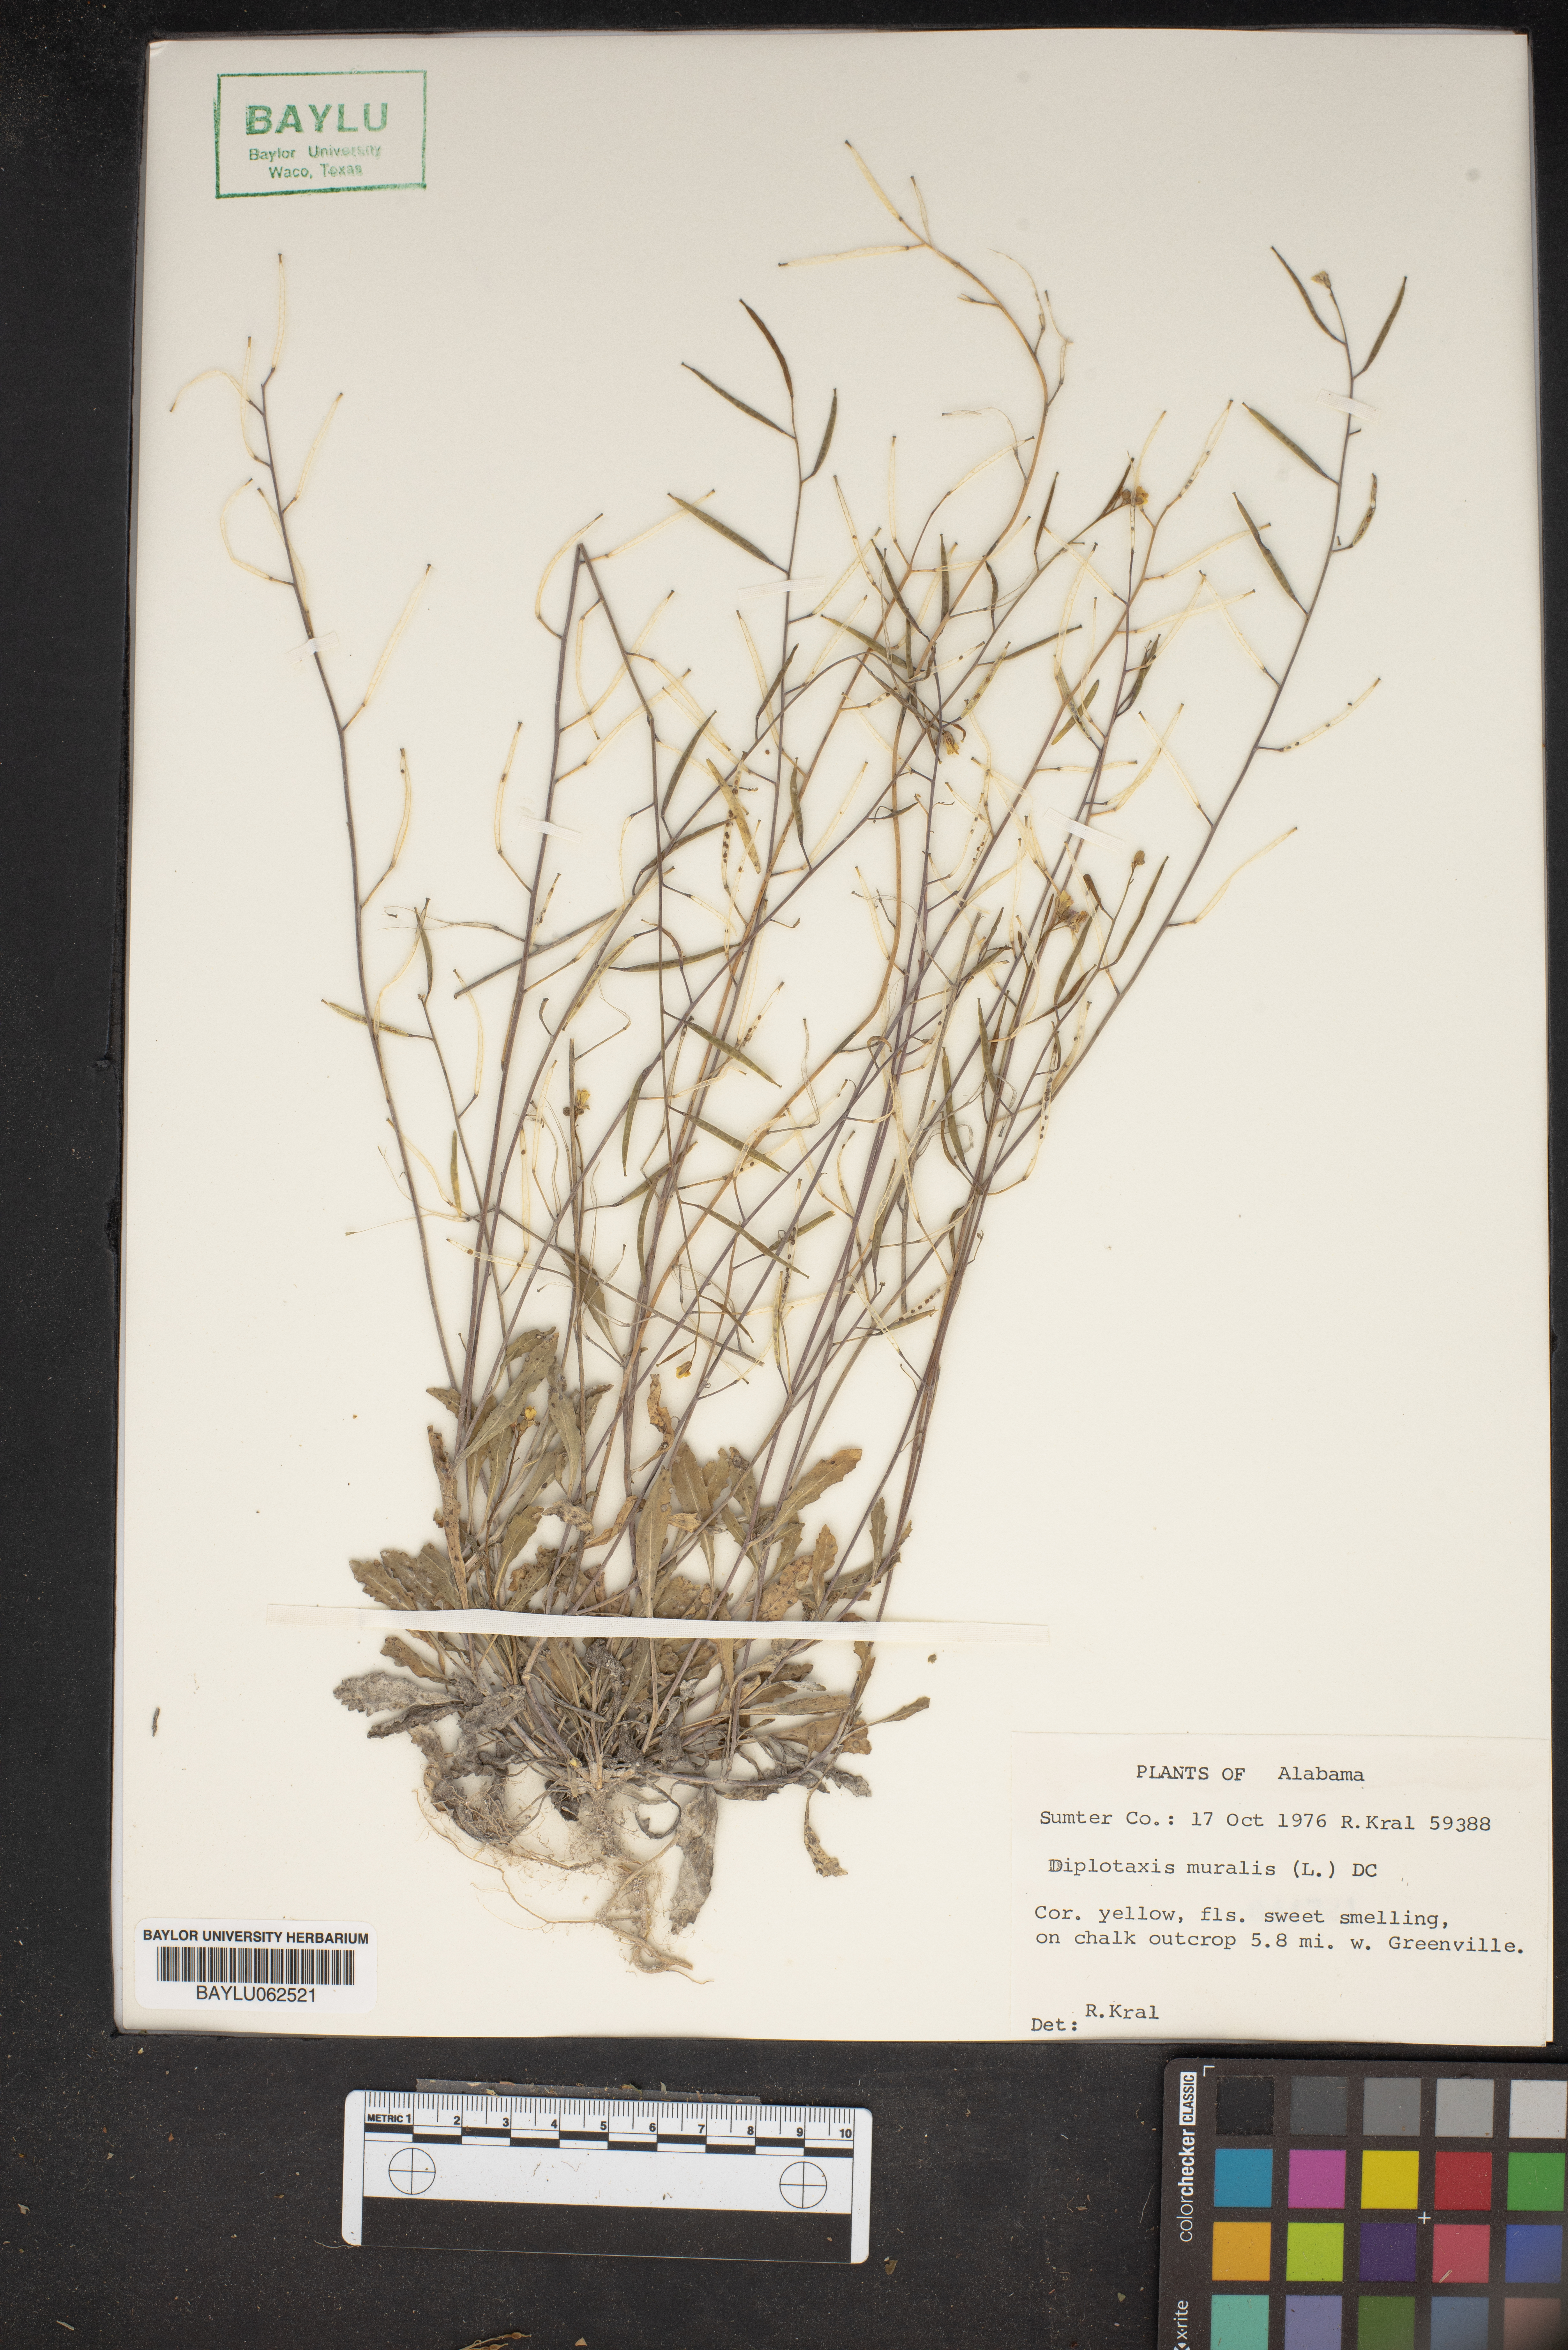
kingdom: Plantae
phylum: Tracheophyta
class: Magnoliopsida
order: Brassicales
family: Brassicaceae
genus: Diplotaxis
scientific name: Diplotaxis muralis
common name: Annual wall-rocket
